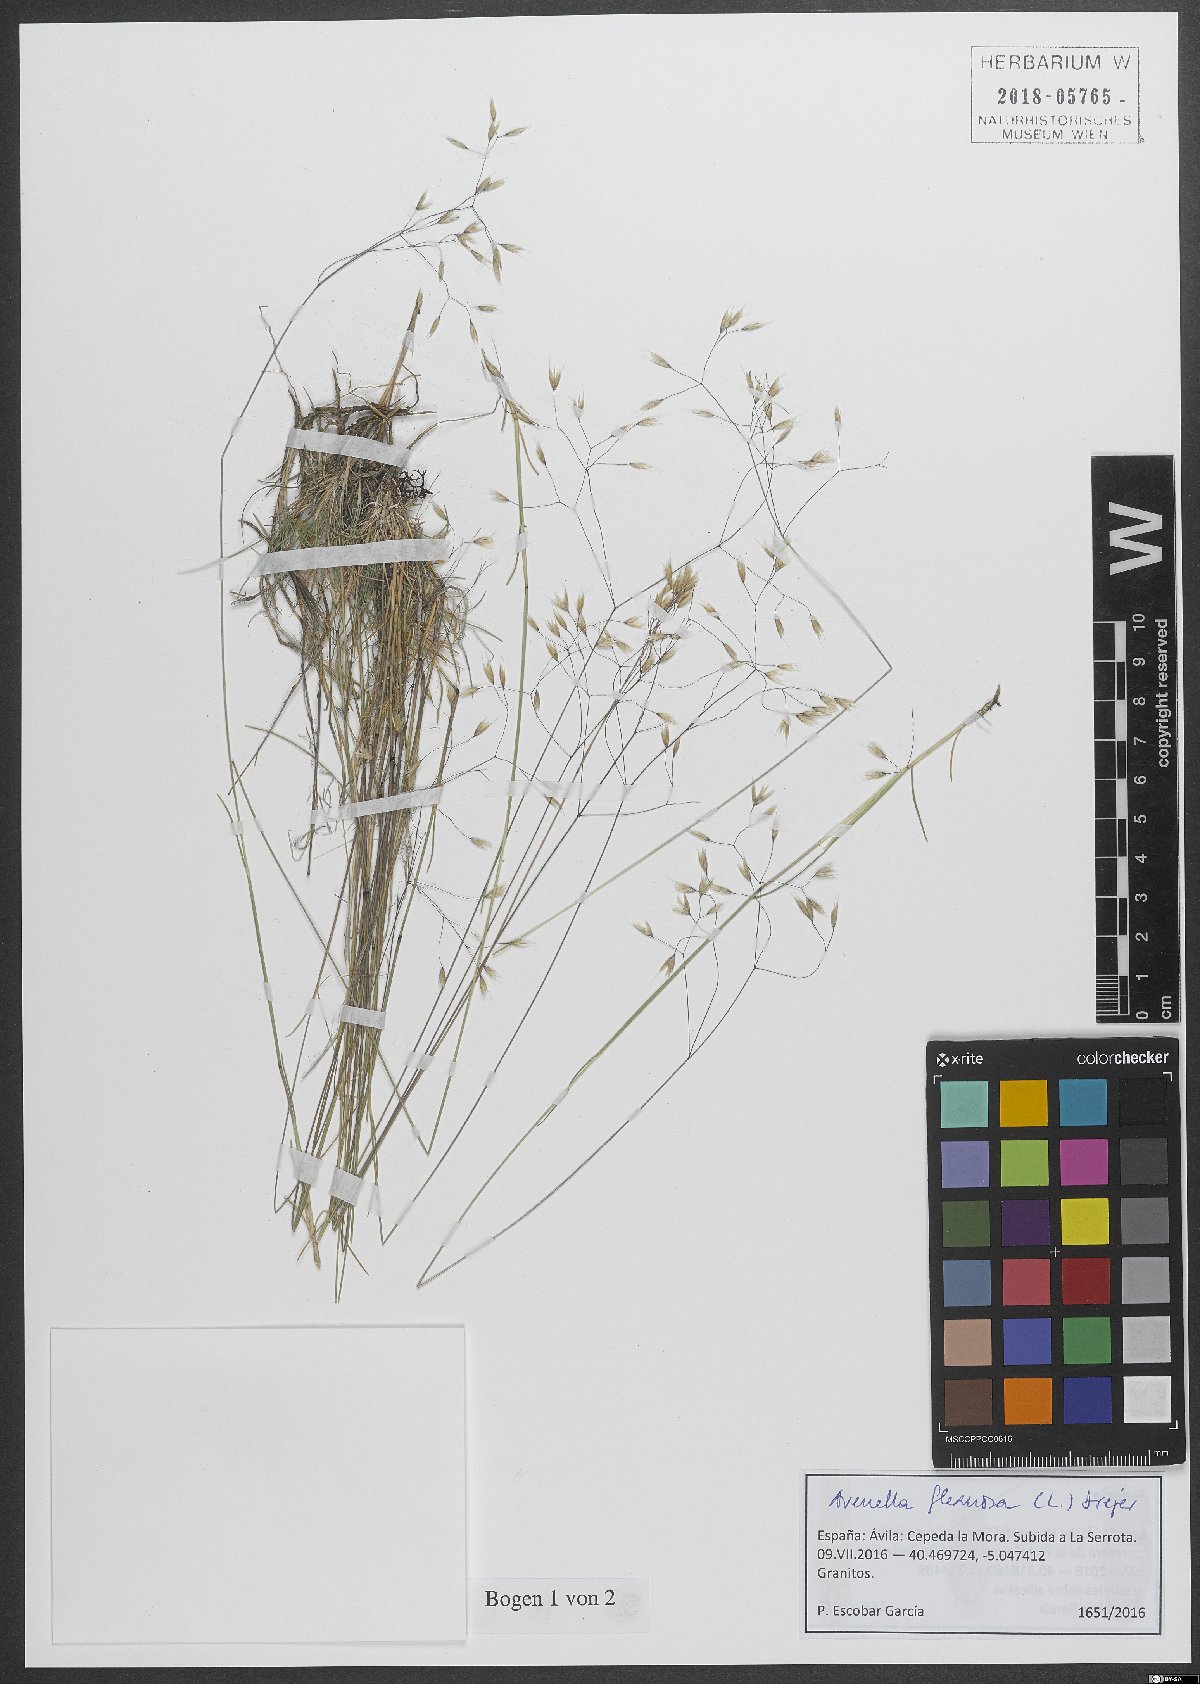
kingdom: Plantae
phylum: Tracheophyta
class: Liliopsida
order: Poales
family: Poaceae
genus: Avenella
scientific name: Avenella flexuosa
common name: Wavy hairgrass
